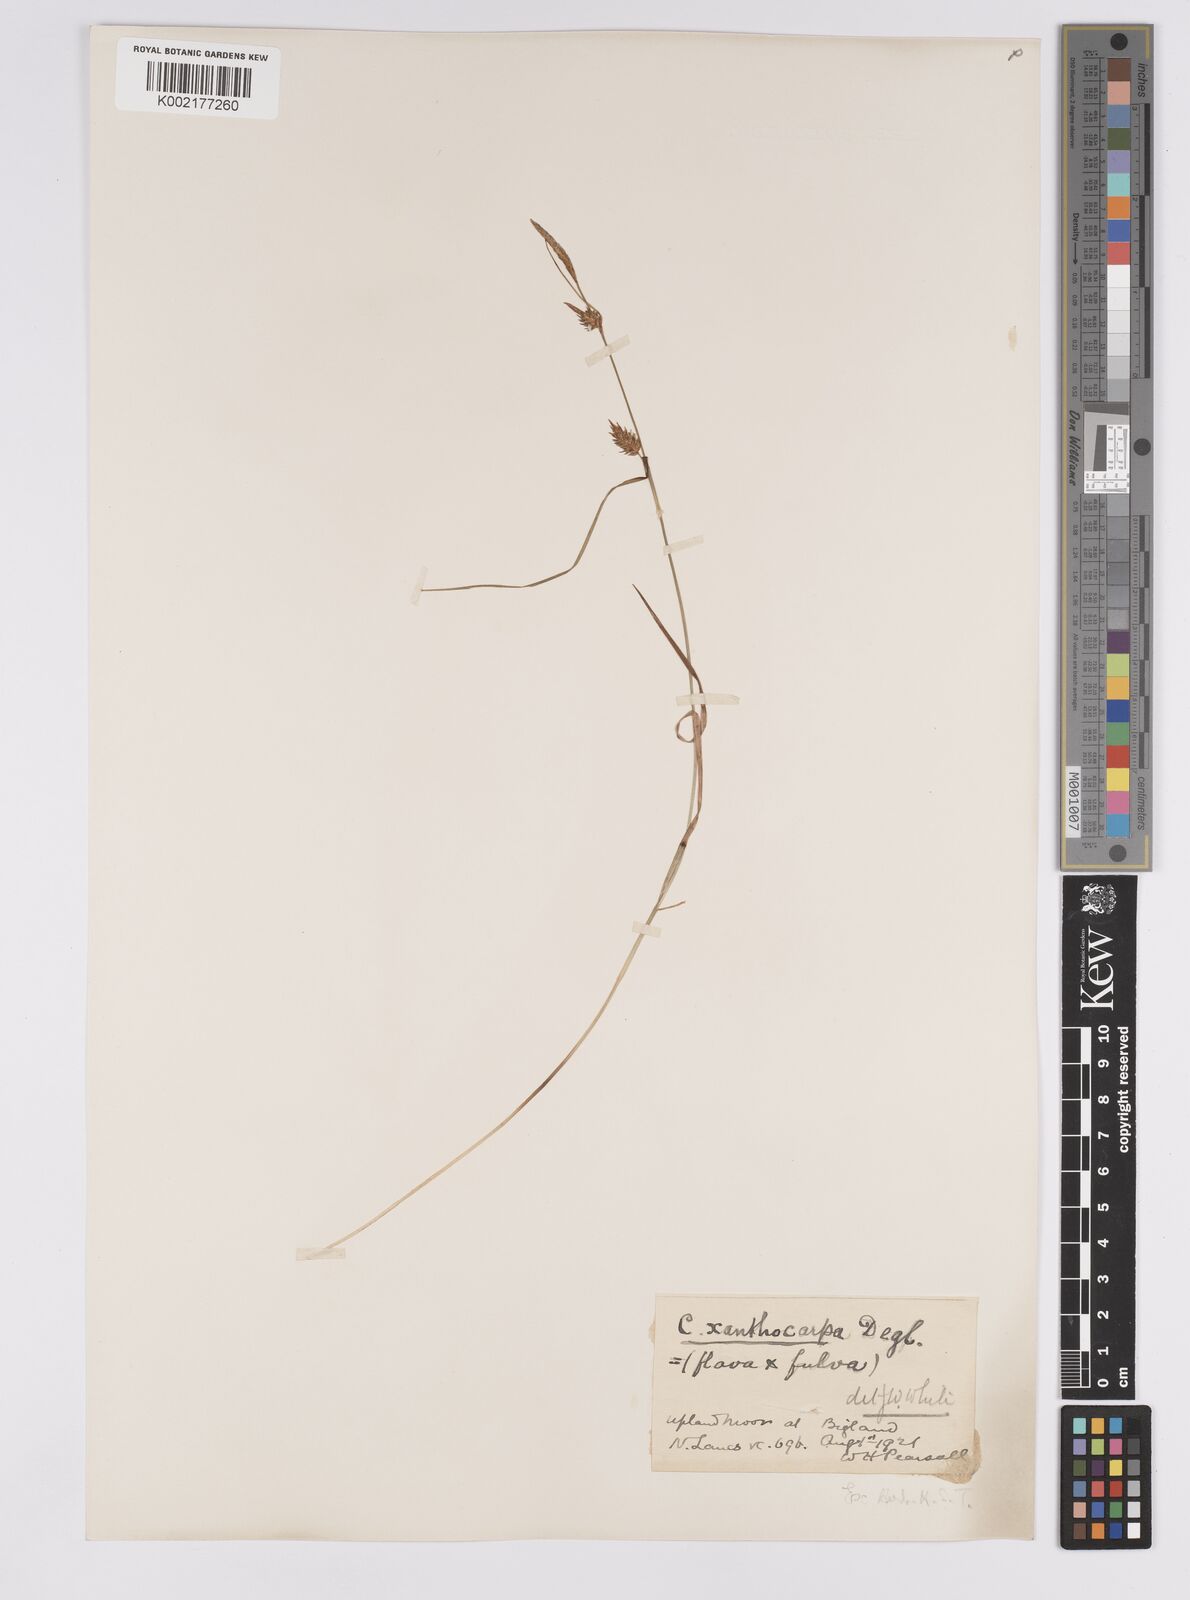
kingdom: Plantae
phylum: Tracheophyta
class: Liliopsida
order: Poales
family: Cyperaceae
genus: Carex
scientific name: Carex hostiana
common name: Tawny sedge
